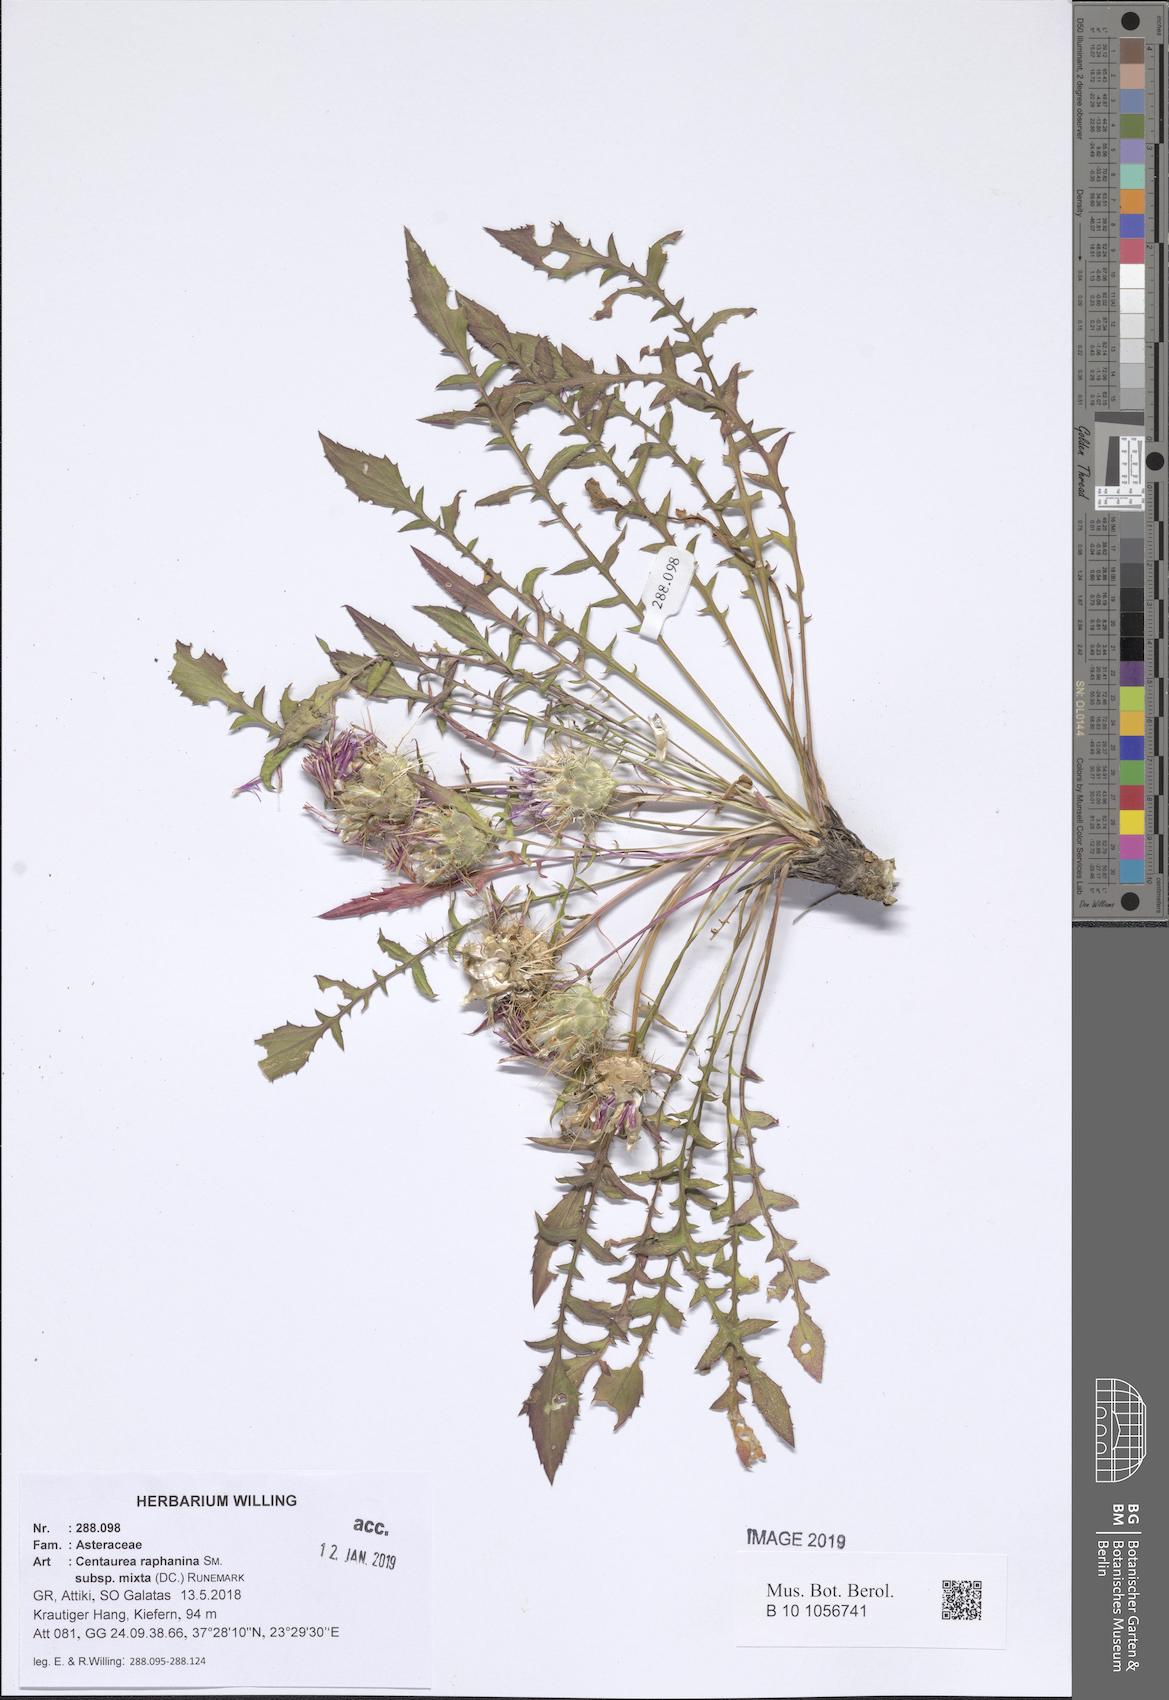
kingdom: Plantae
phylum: Tracheophyta
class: Magnoliopsida
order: Asterales
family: Asteraceae
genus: Centaurea
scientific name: Centaurea raphanina
